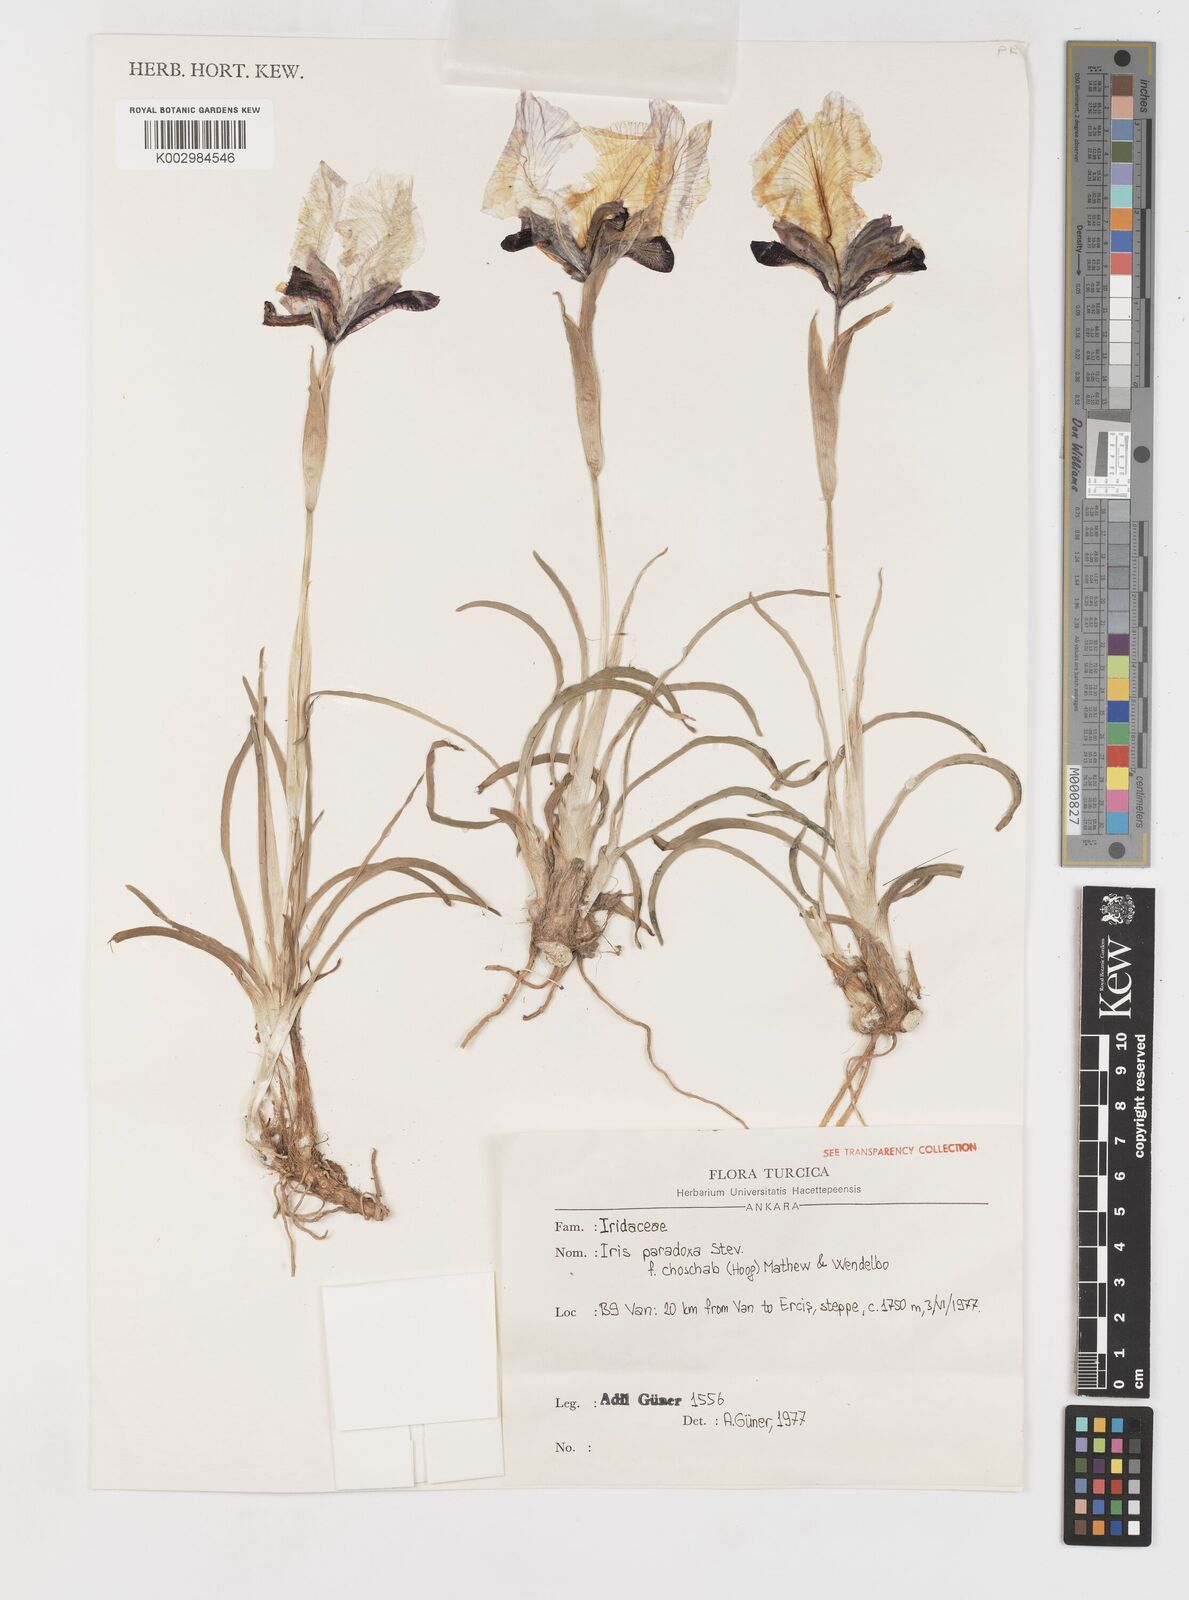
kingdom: Plantae
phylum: Tracheophyta
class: Liliopsida
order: Asparagales
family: Iridaceae
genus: Iris
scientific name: Iris paradoxa
